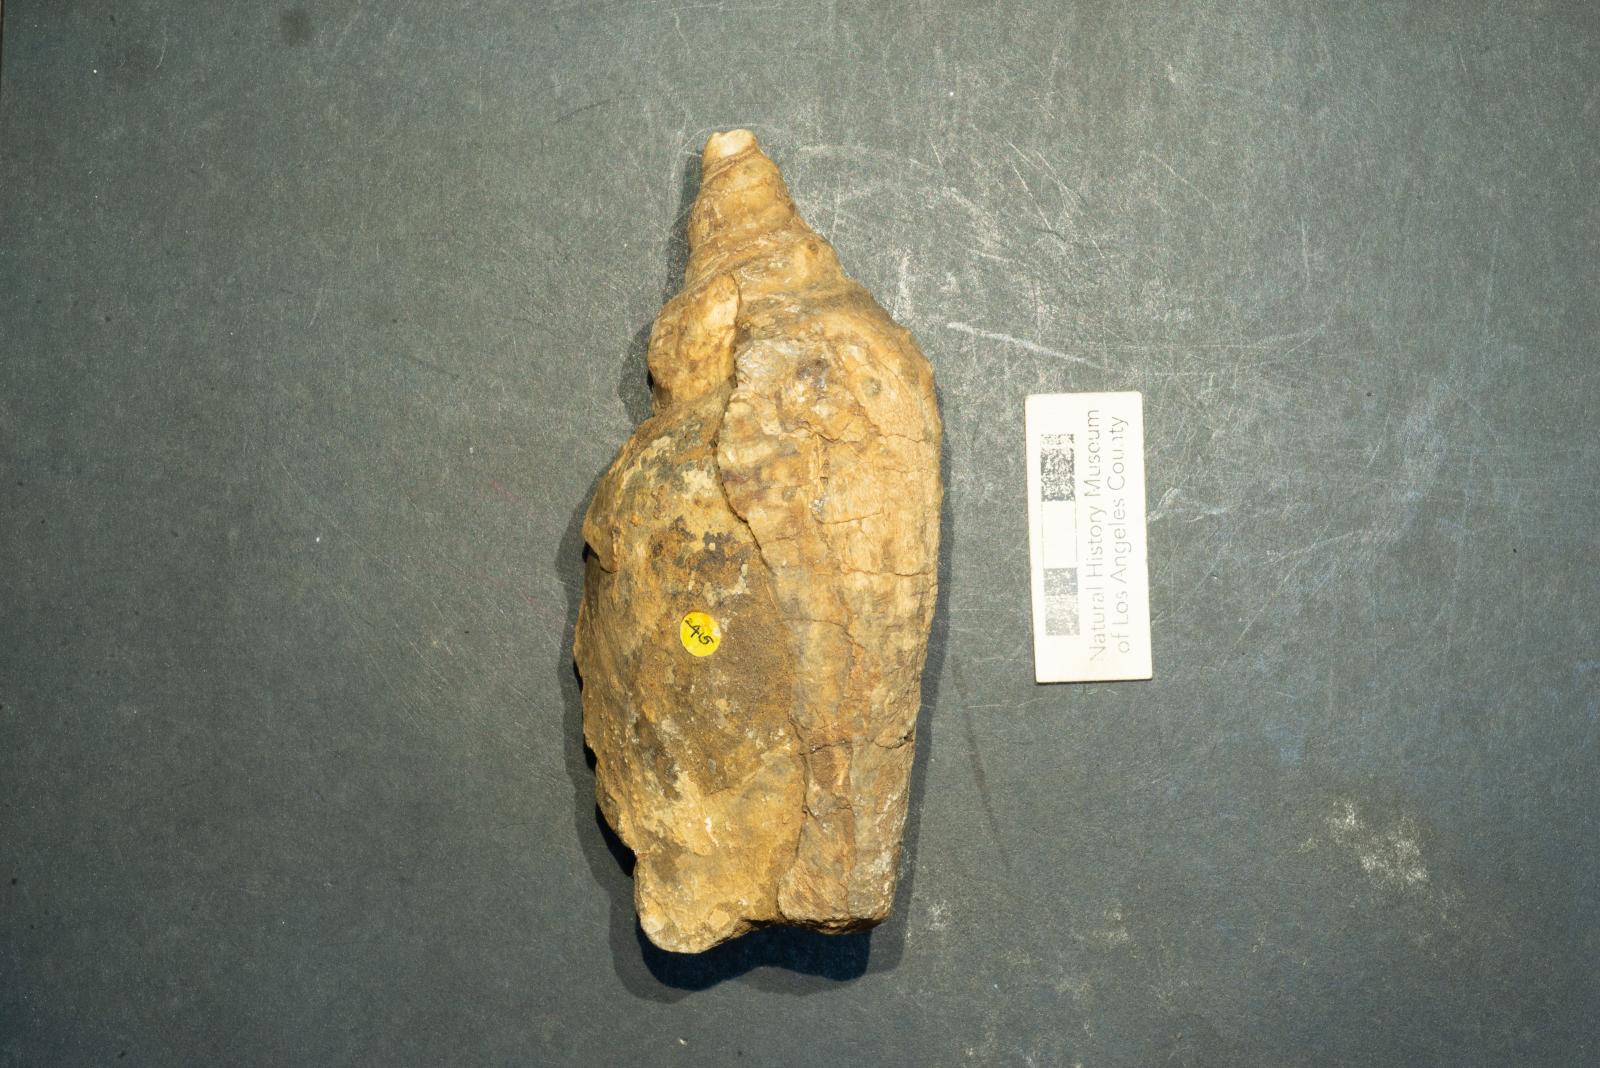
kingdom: Animalia
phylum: Mollusca
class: Gastropoda
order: Neogastropoda
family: Pholidotomidae
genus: Volutoderma
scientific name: Volutoderma magna
